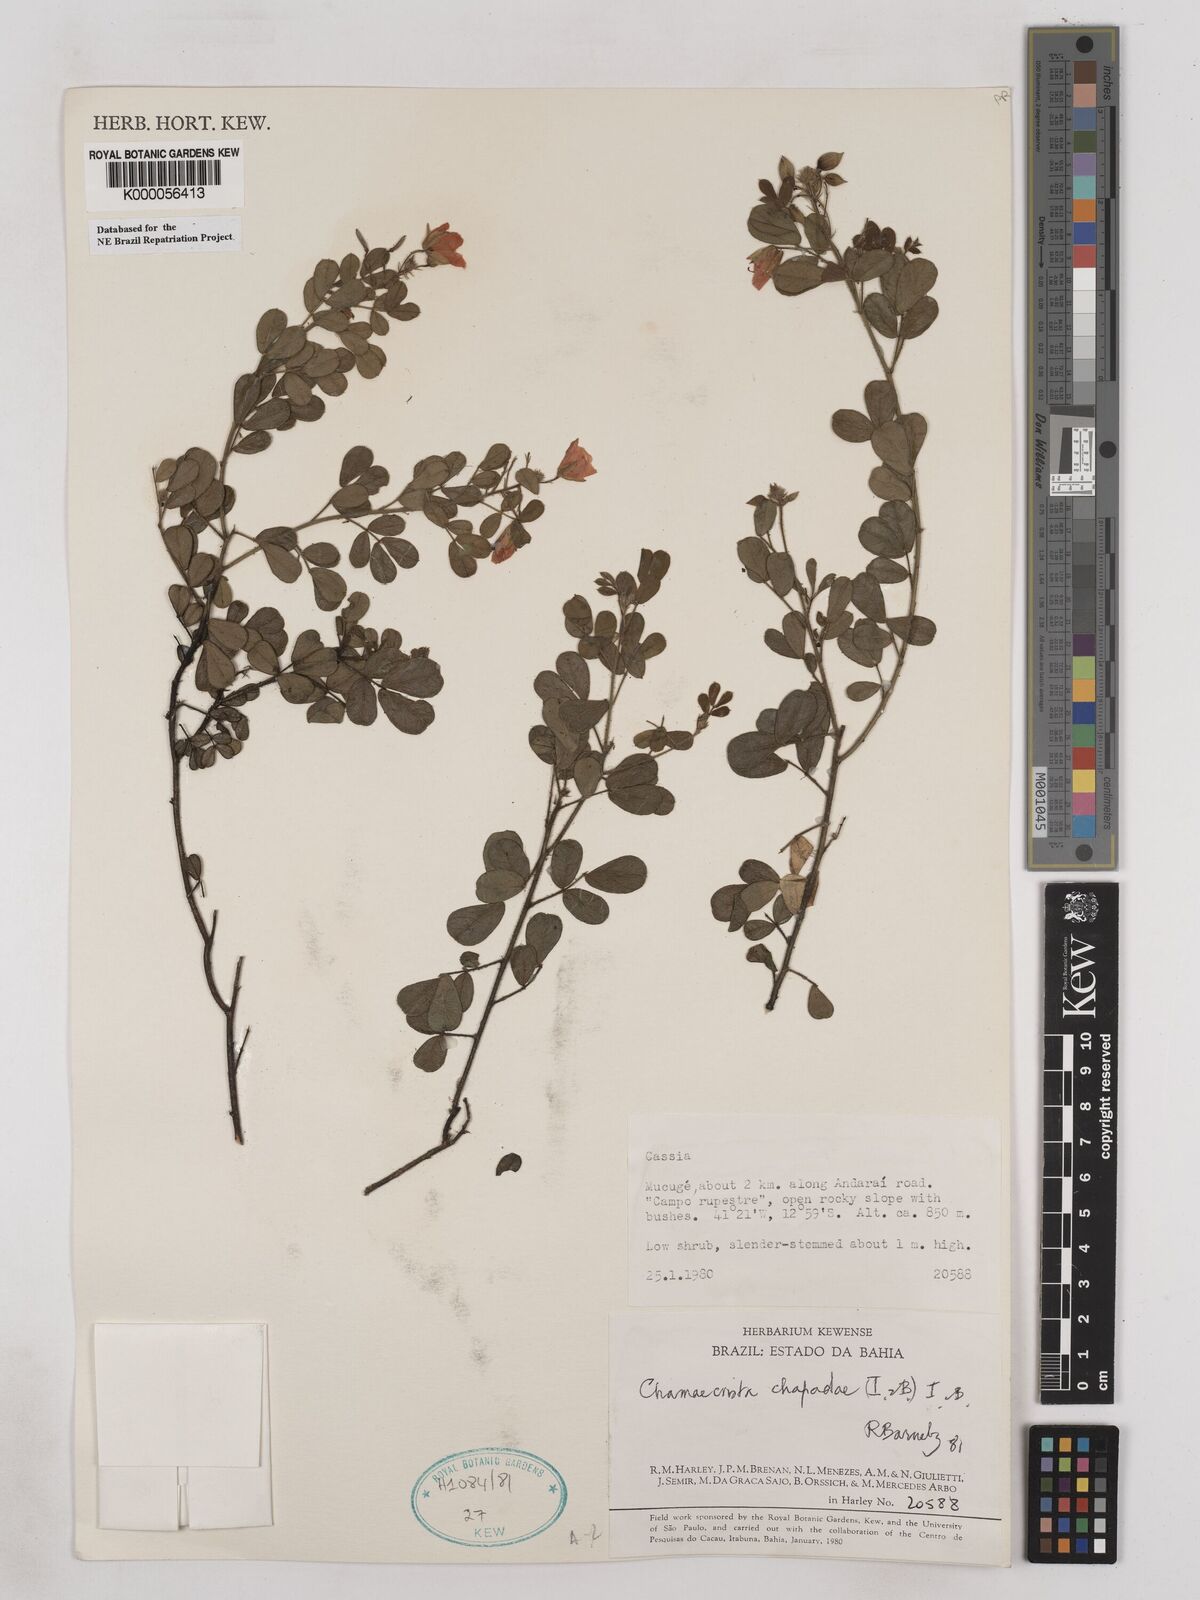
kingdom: Plantae
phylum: Tracheophyta
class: Magnoliopsida
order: Fabales
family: Fabaceae
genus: Chamaecrista
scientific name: Chamaecrista chapadae
